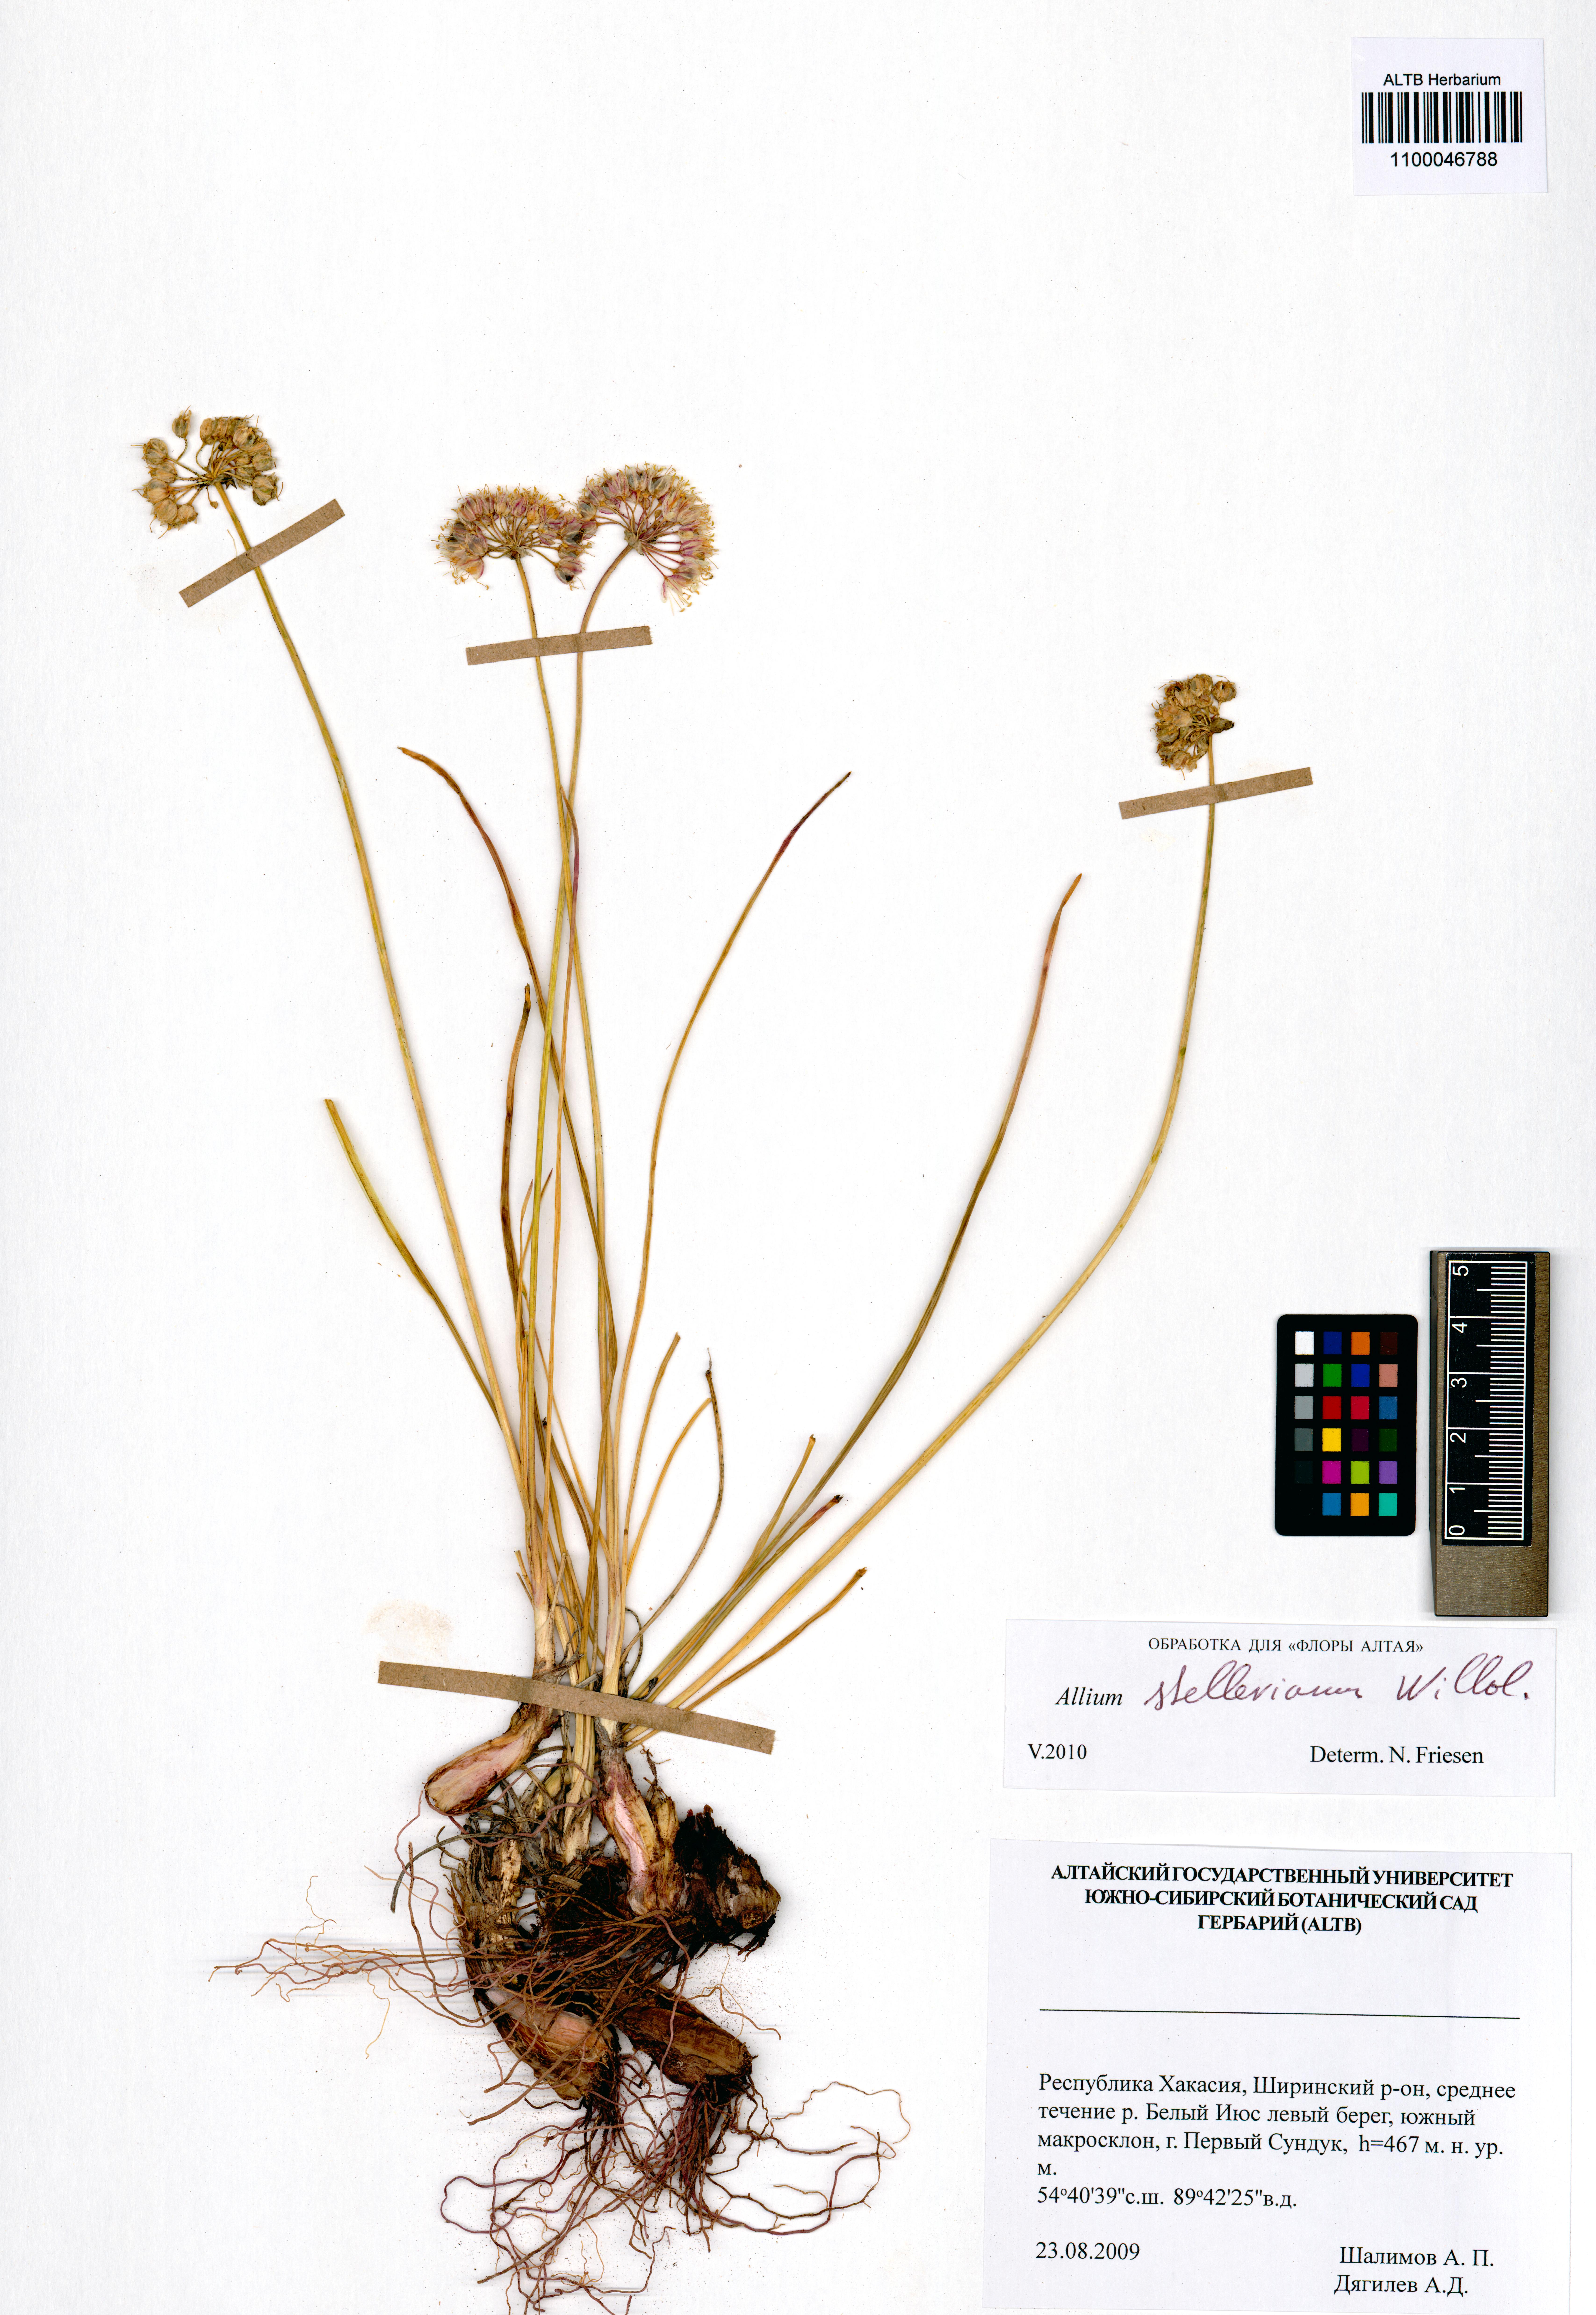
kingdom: Plantae
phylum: Tracheophyta
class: Liliopsida
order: Asparagales
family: Amaryllidaceae
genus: Allium
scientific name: Allium stellerianum
